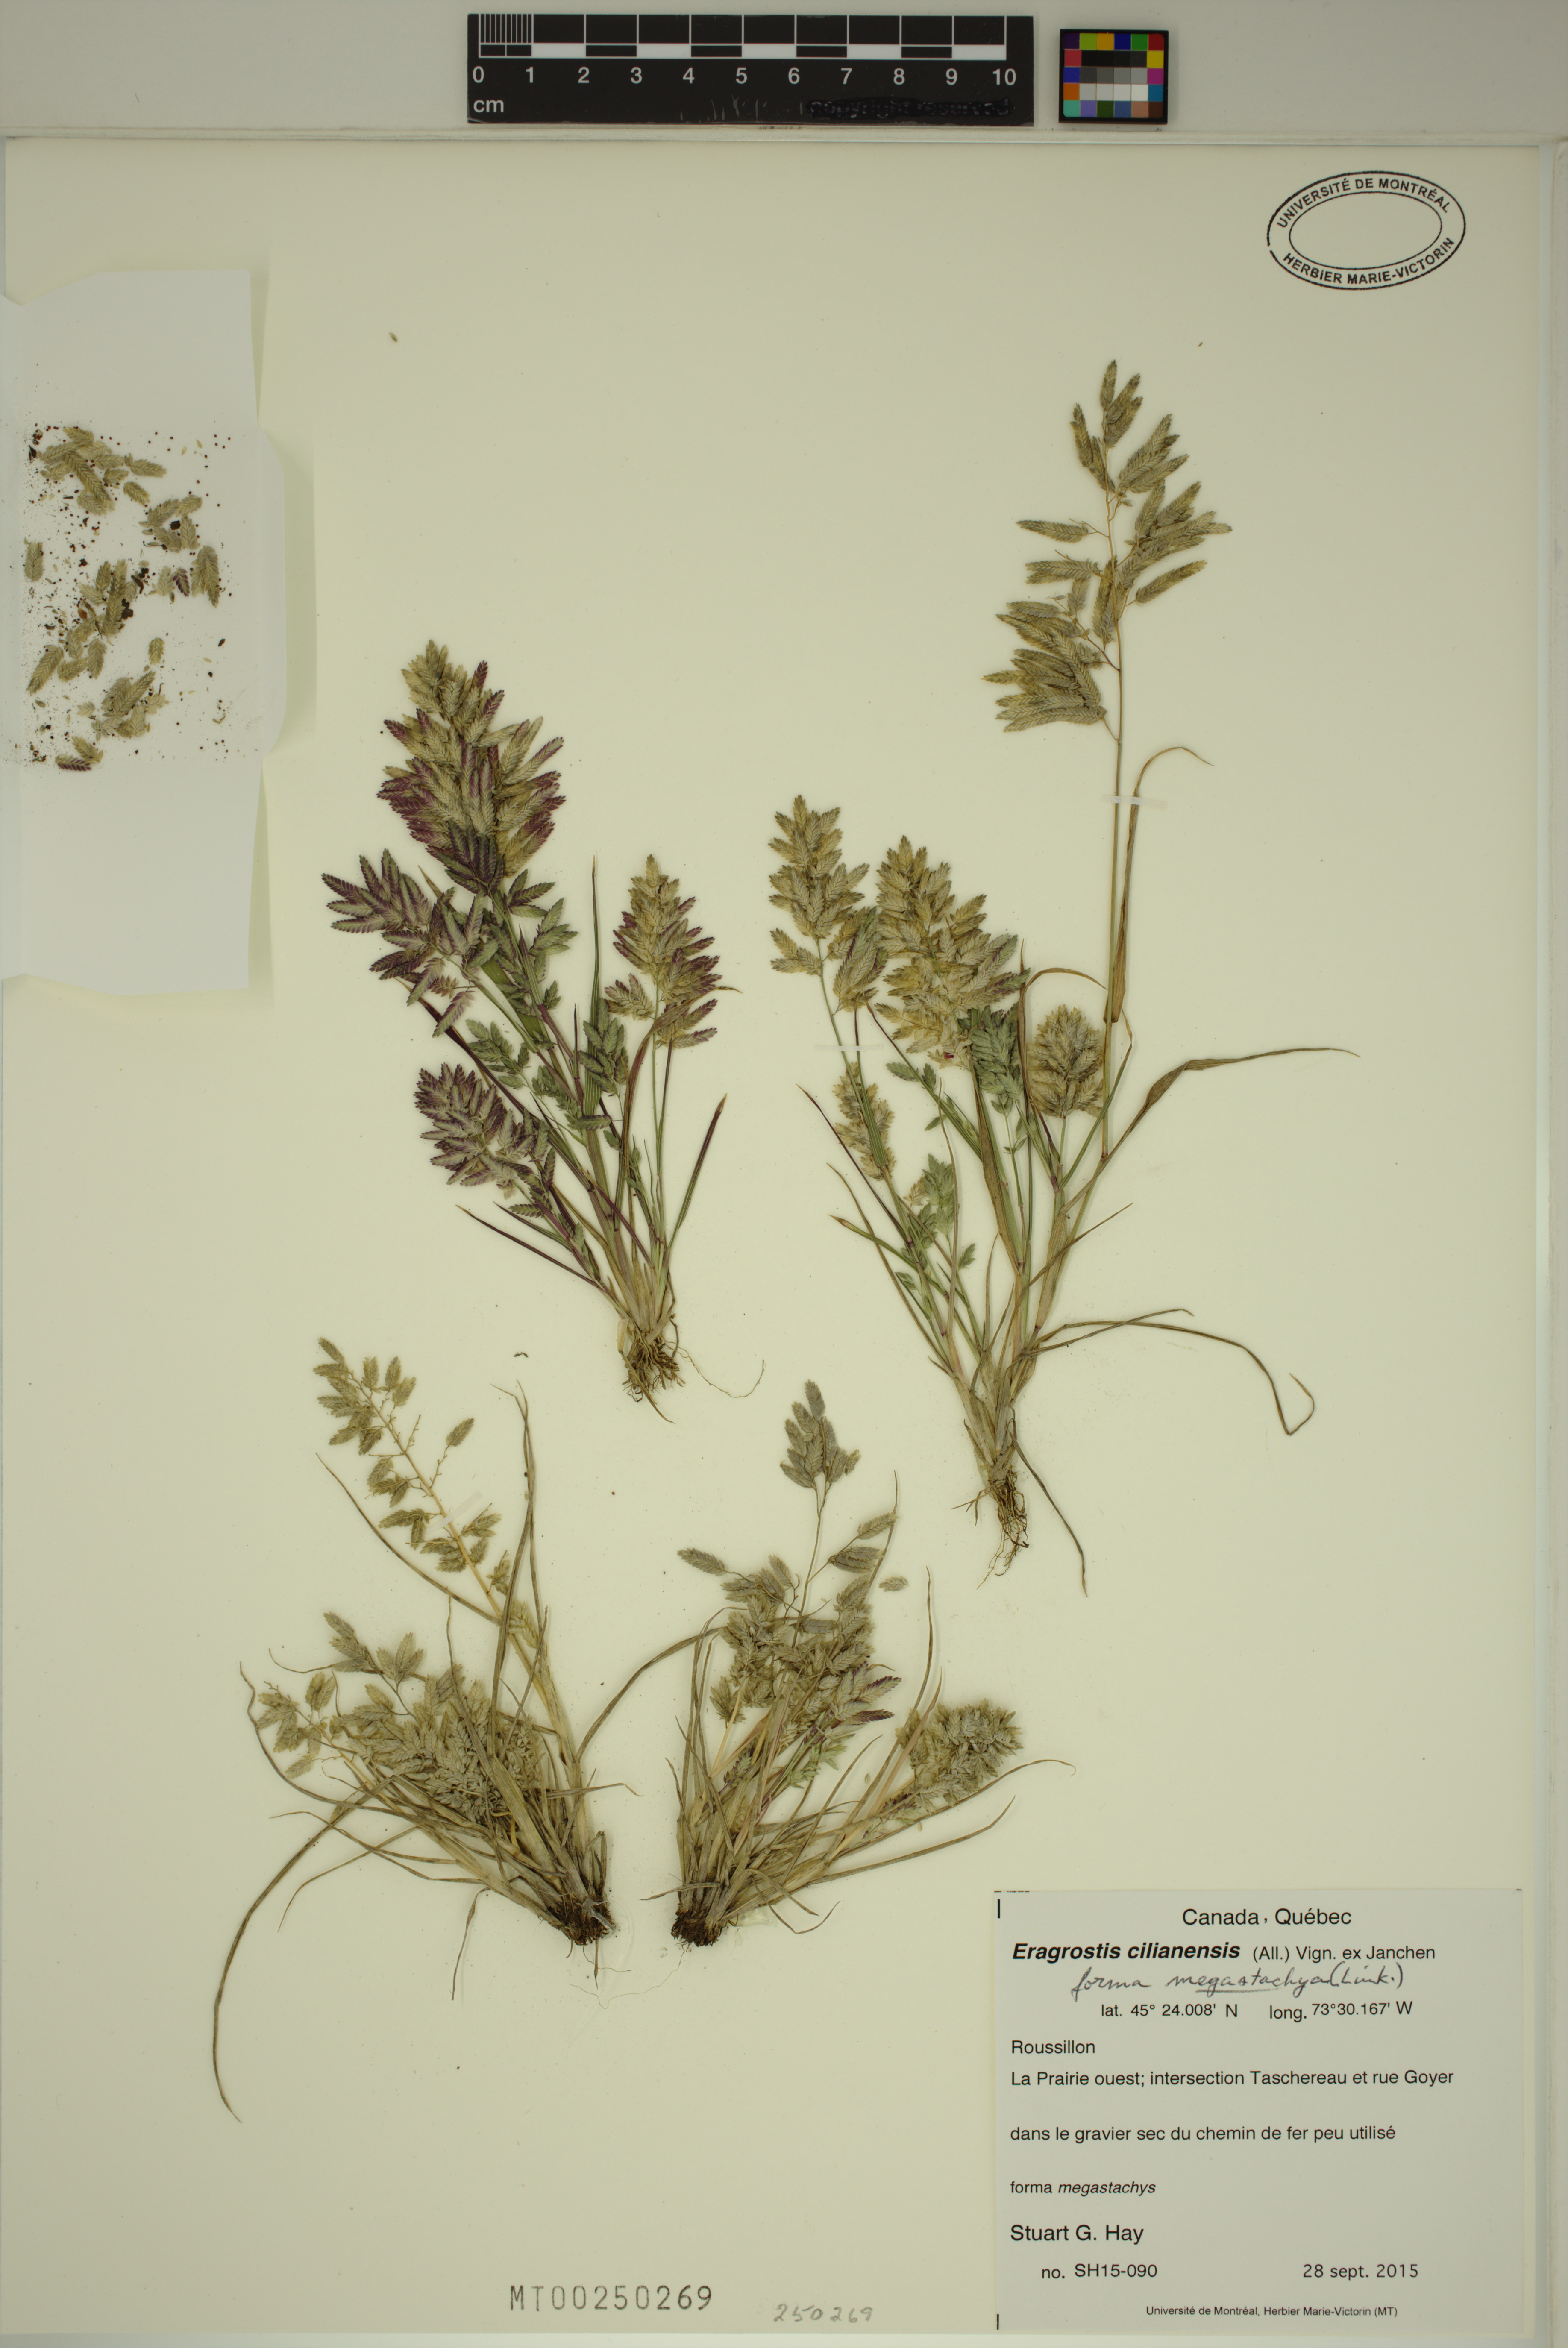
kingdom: Plantae
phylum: Tracheophyta
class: Liliopsida
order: Poales
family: Poaceae
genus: Eragrostis
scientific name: Eragrostis cilianensis
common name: Stinkgrass
